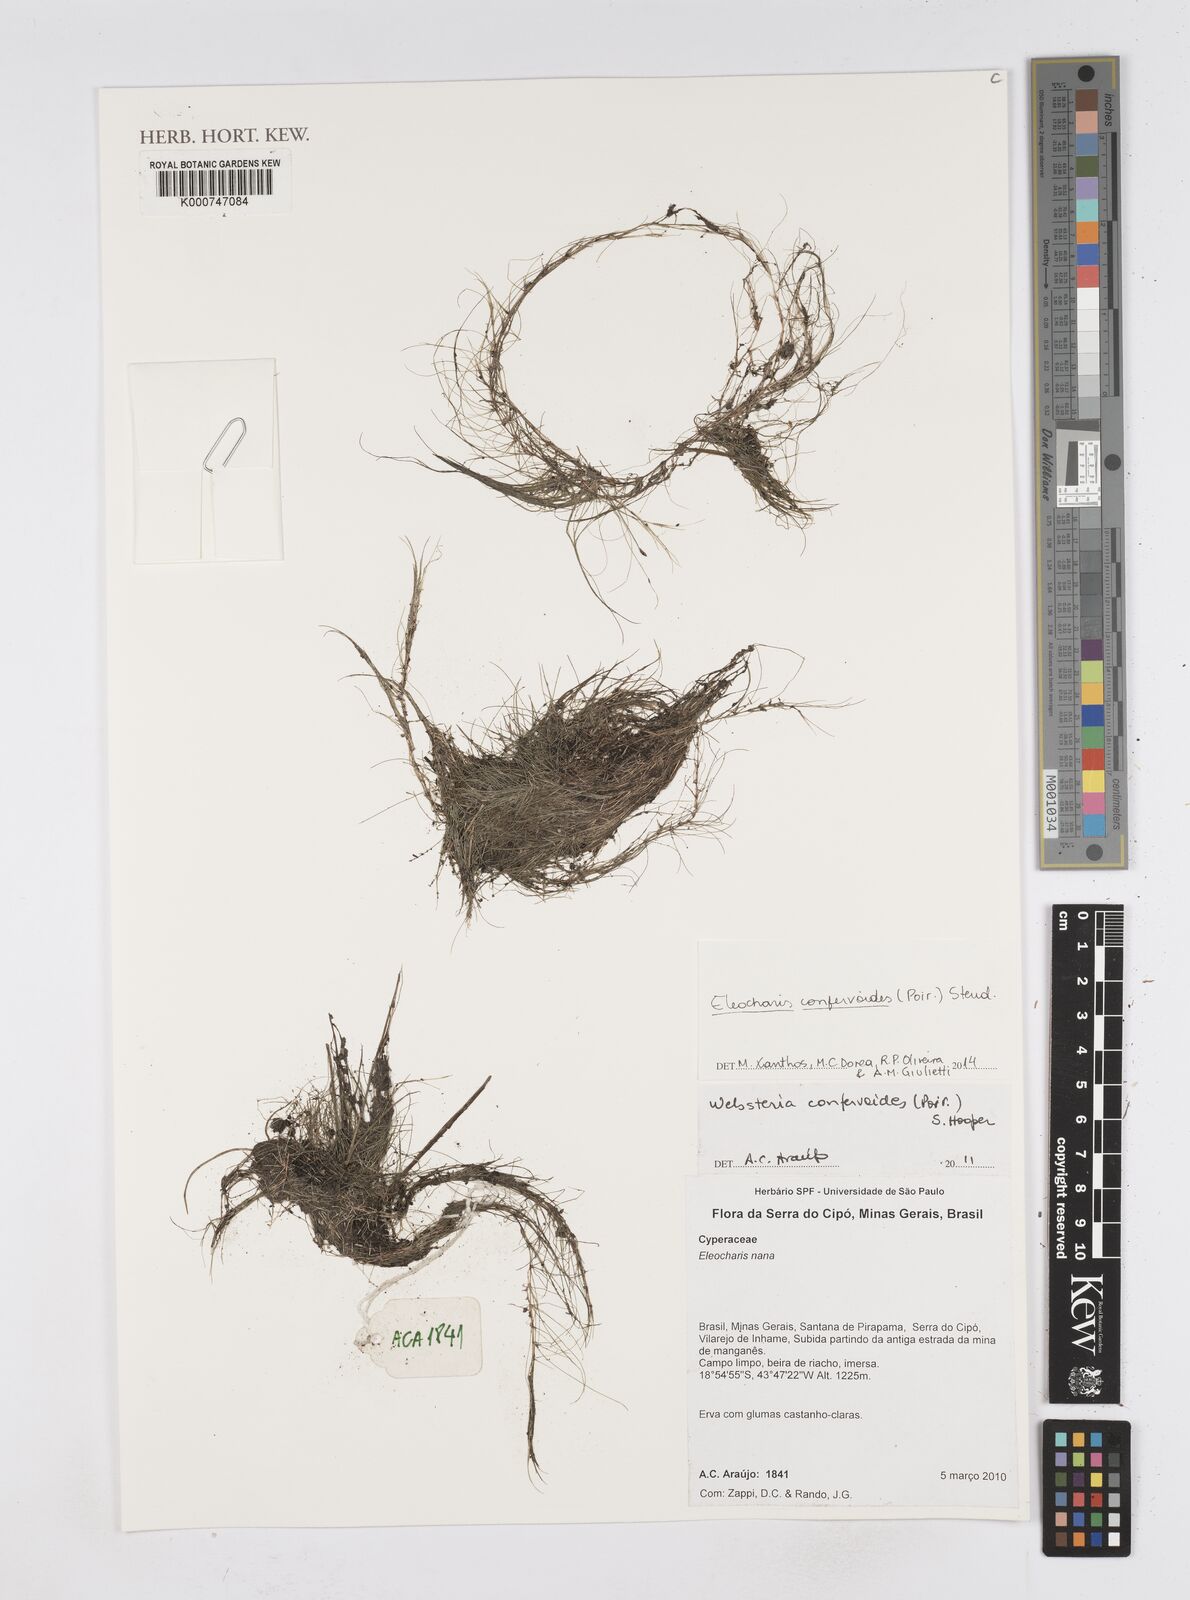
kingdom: Plantae
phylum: Tracheophyta
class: Liliopsida
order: Poales
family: Cyperaceae
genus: Eleocharis
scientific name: Eleocharis confervoides
